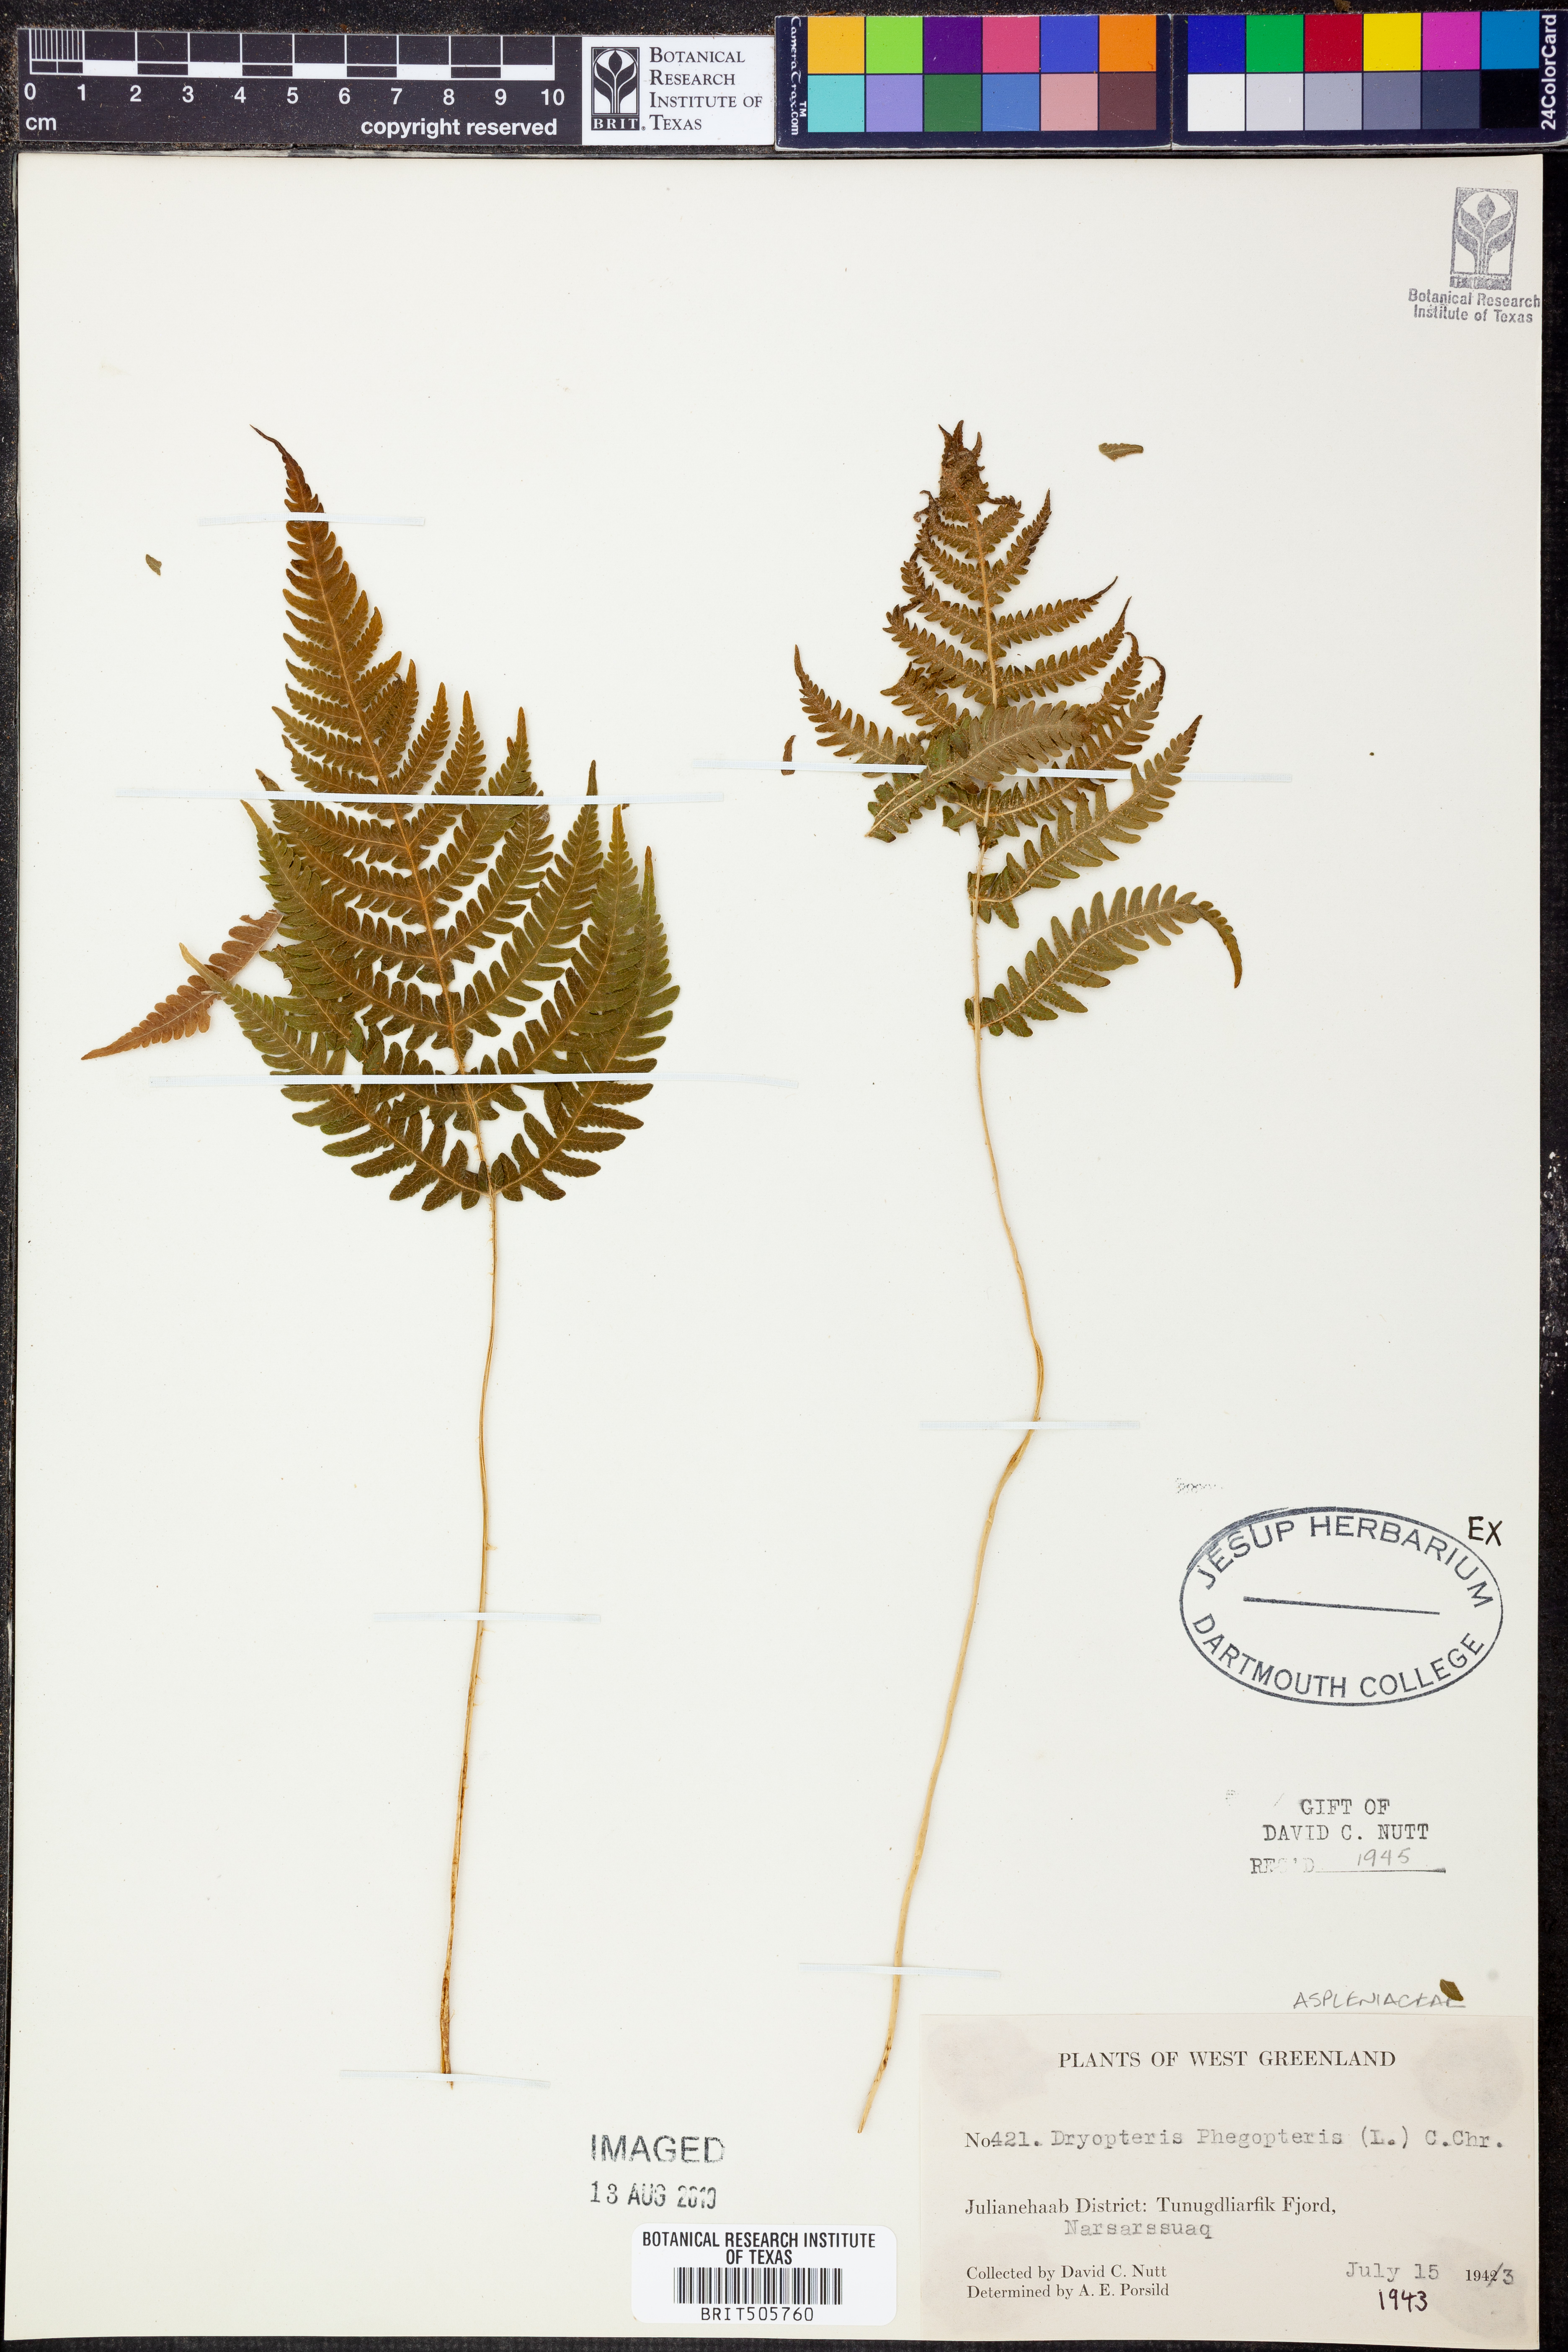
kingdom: Plantae
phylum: Tracheophyta
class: Polypodiopsida
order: Polypodiales
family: Thelypteridaceae
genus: Phegopteris
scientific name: Phegopteris connectilis
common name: Beech fern
